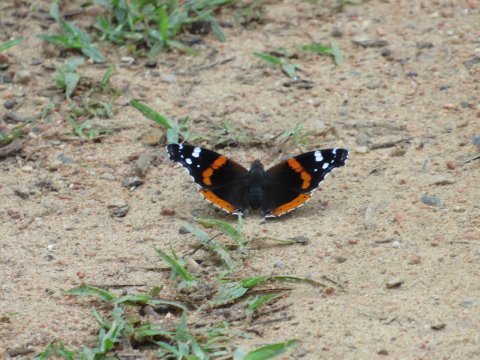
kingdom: Animalia
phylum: Arthropoda
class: Insecta
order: Lepidoptera
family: Nymphalidae
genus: Vanessa
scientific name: Vanessa atalanta
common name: Red Admiral
